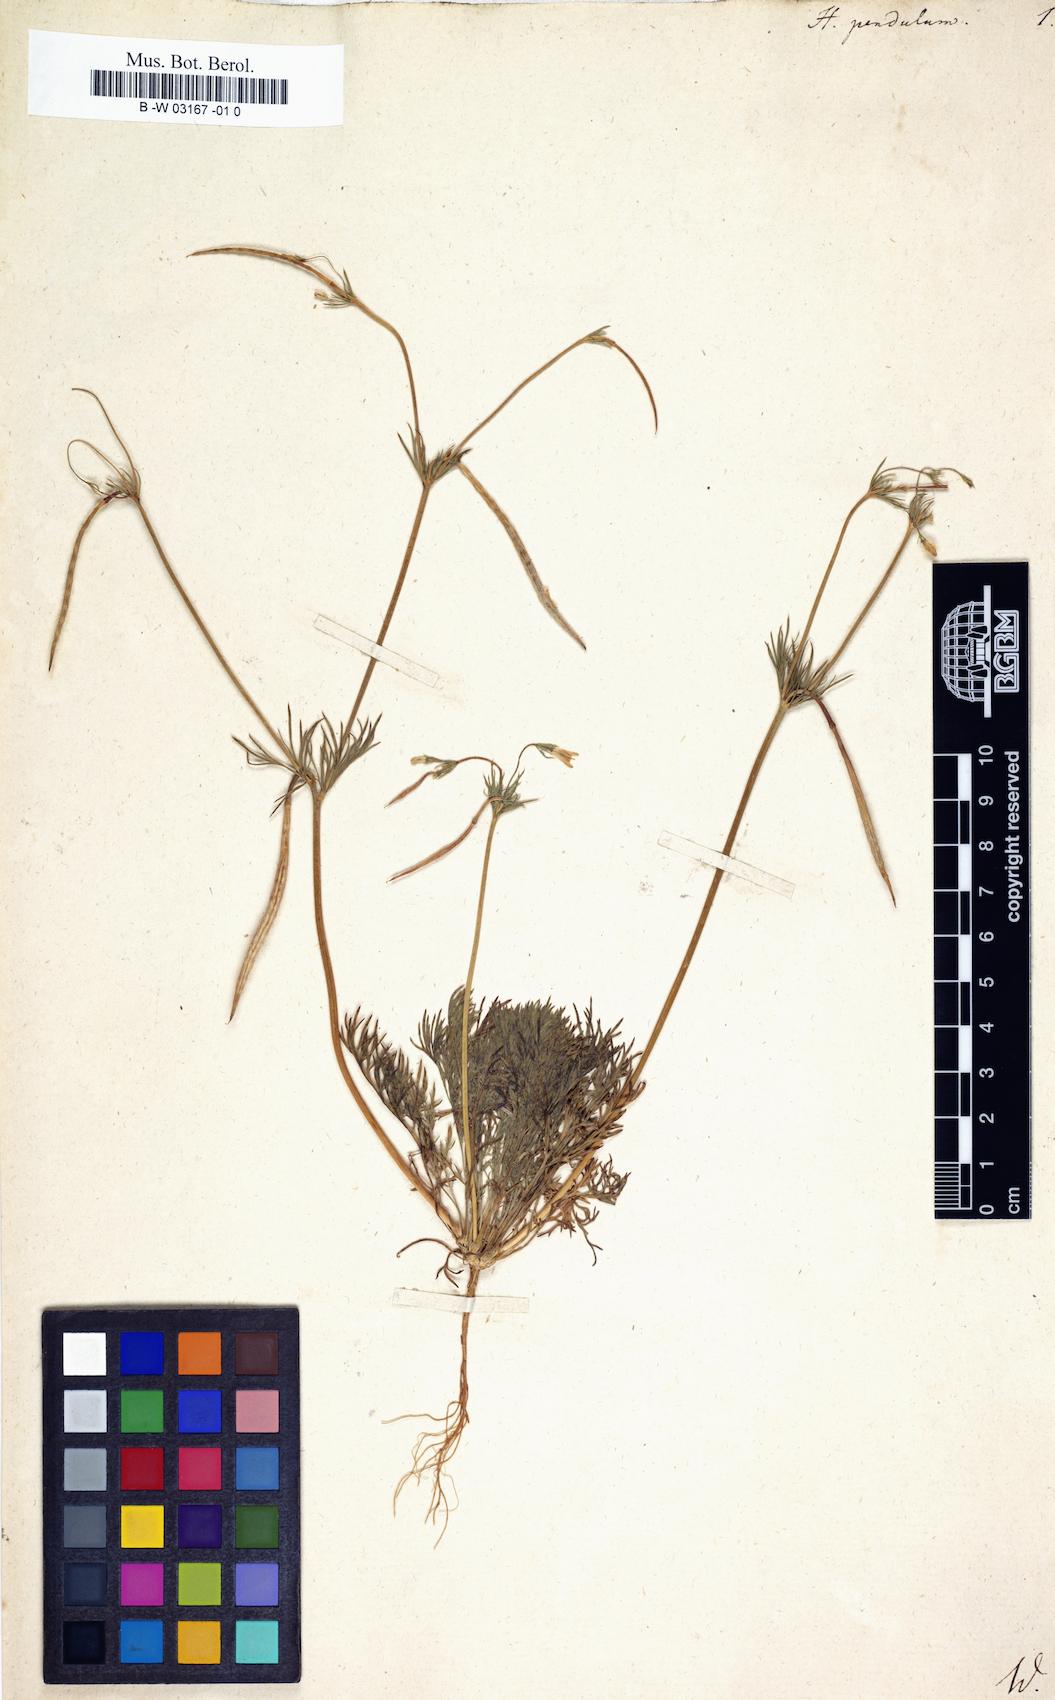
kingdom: Plantae
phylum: Tracheophyta
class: Magnoliopsida
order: Ranunculales
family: Papaveraceae
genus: Hypecoum
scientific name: Hypecoum pendulum
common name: Nodding hypecoum
